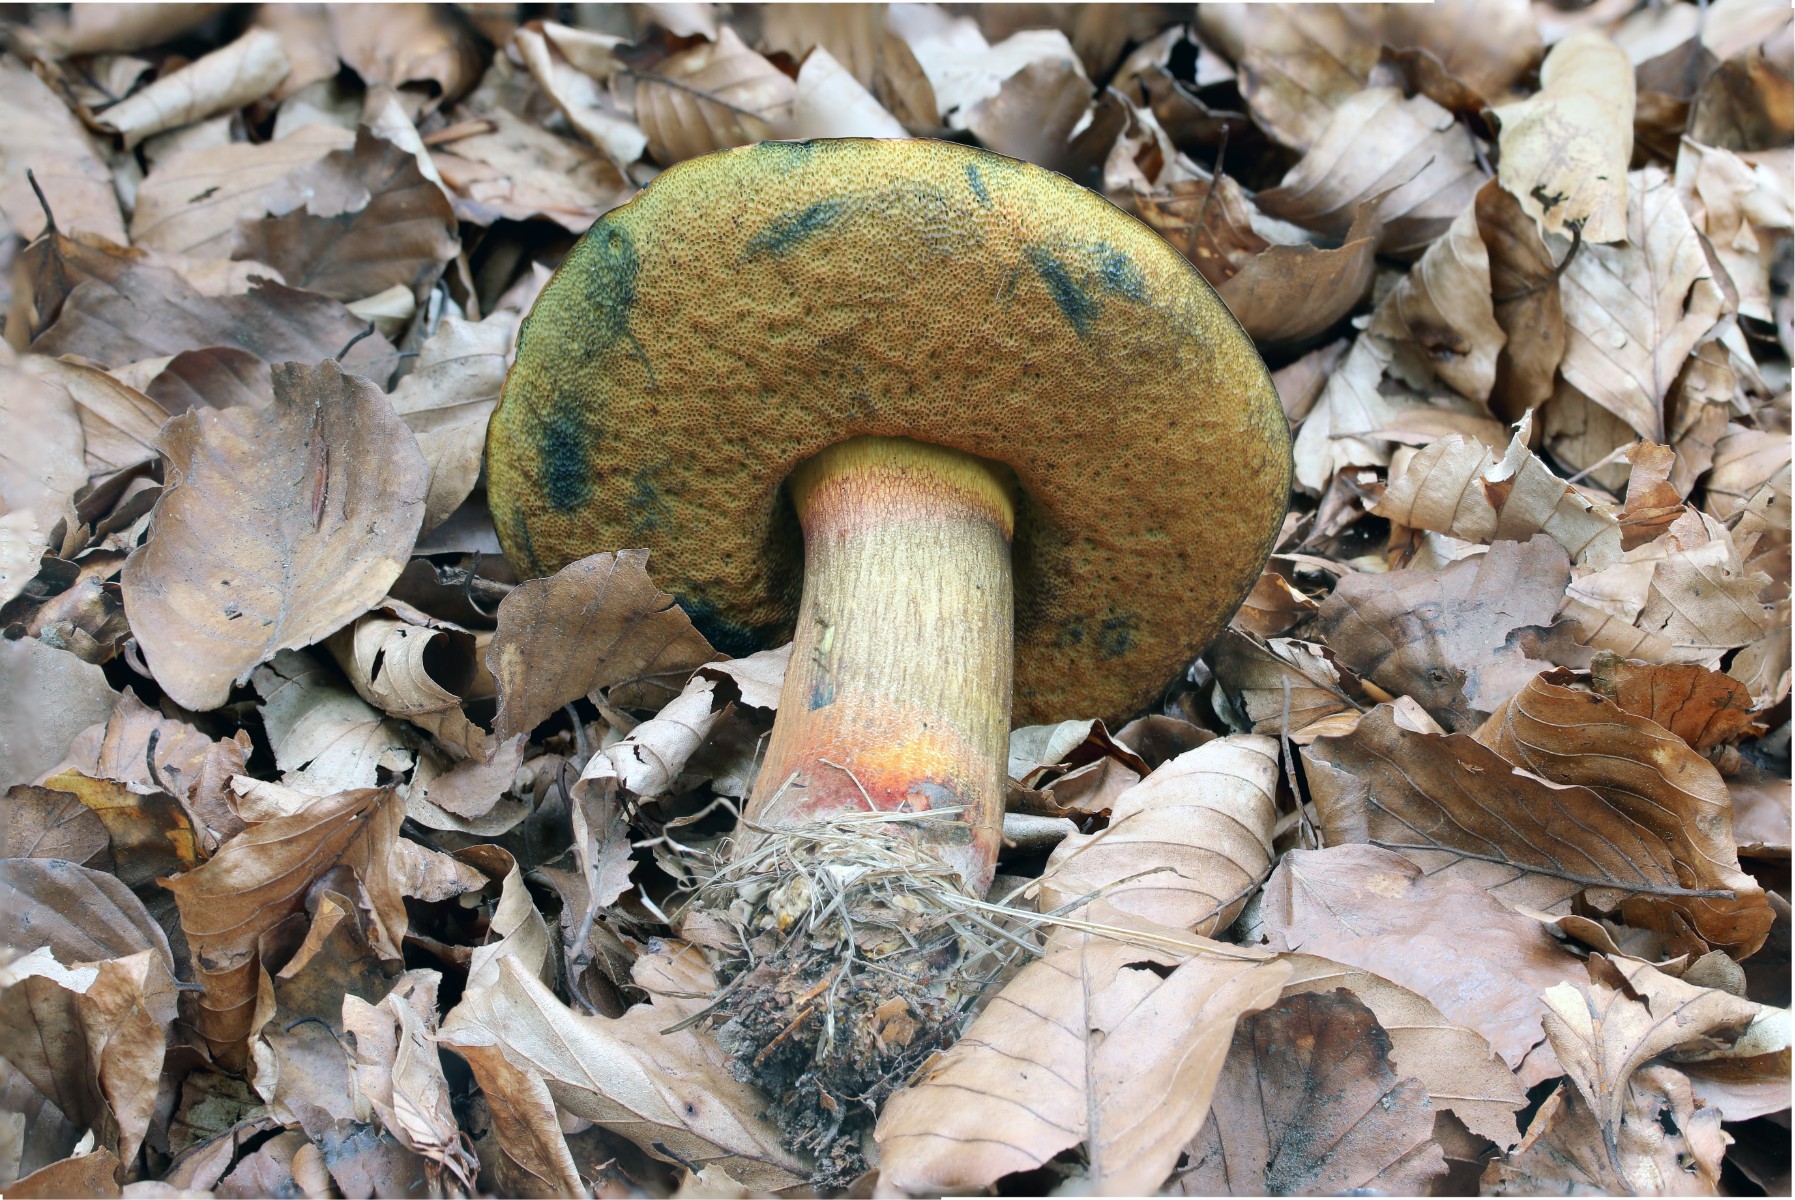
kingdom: Fungi
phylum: Basidiomycota
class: Agaricomycetes
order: Boletales
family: Boletaceae
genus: Suillellus
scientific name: Suillellus luridus
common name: netstokket indigorørhat
